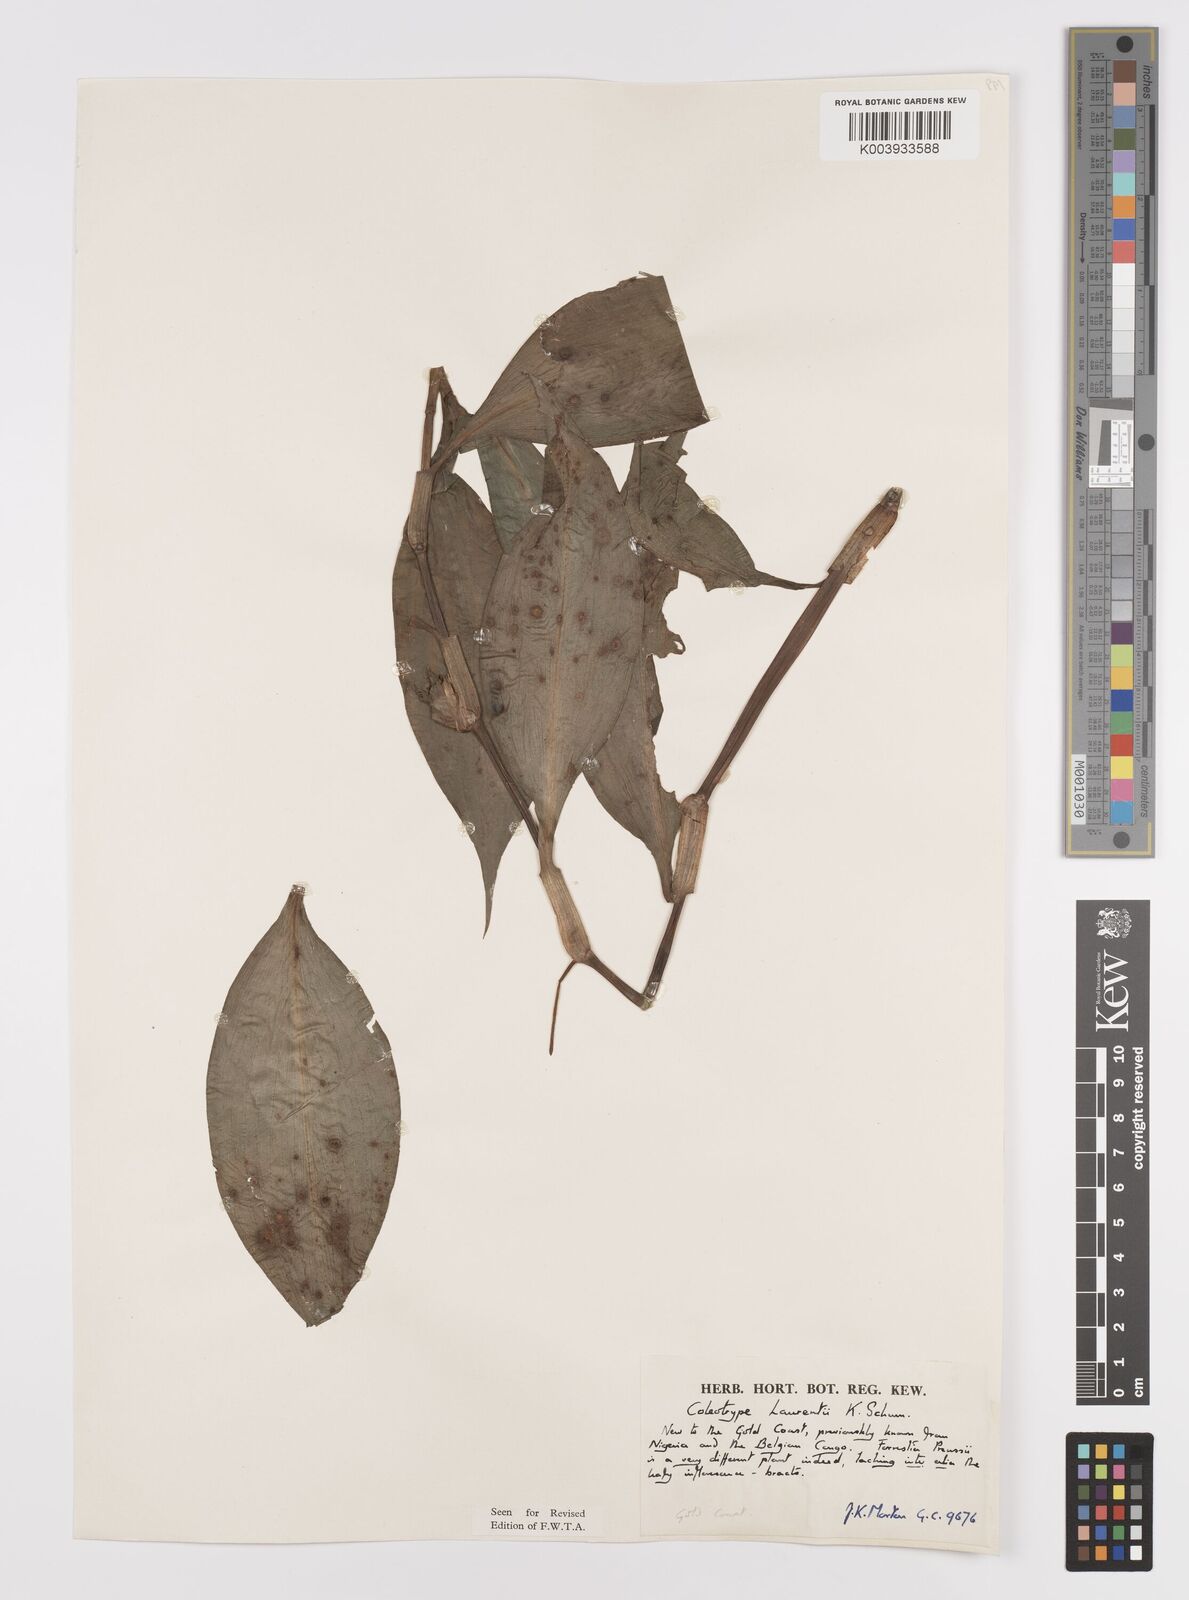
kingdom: Plantae
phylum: Tracheophyta
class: Liliopsida
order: Commelinales
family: Commelinaceae
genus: Coleotrype
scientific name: Coleotrype laurentii
